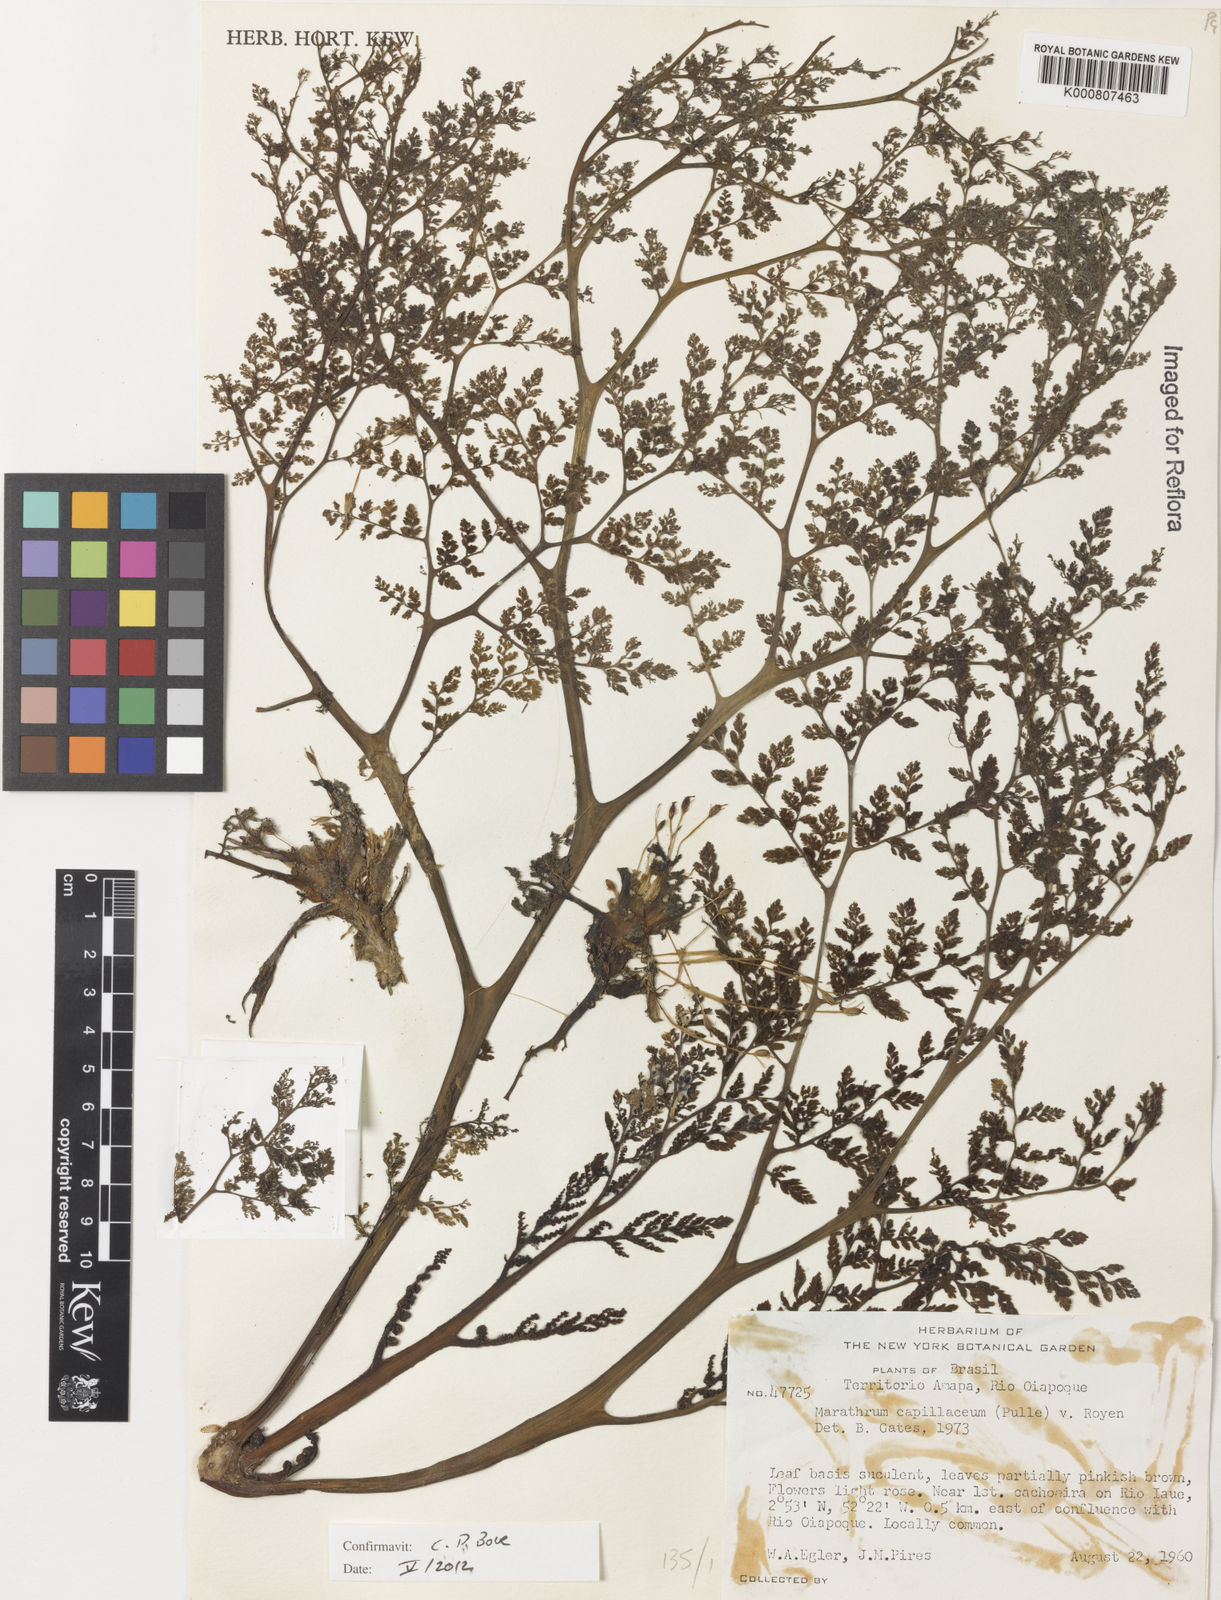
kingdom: Plantae
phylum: Tracheophyta
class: Magnoliopsida
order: Malpighiales
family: Podostemaceae
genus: Marathrum
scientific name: Marathrum capillaceum
